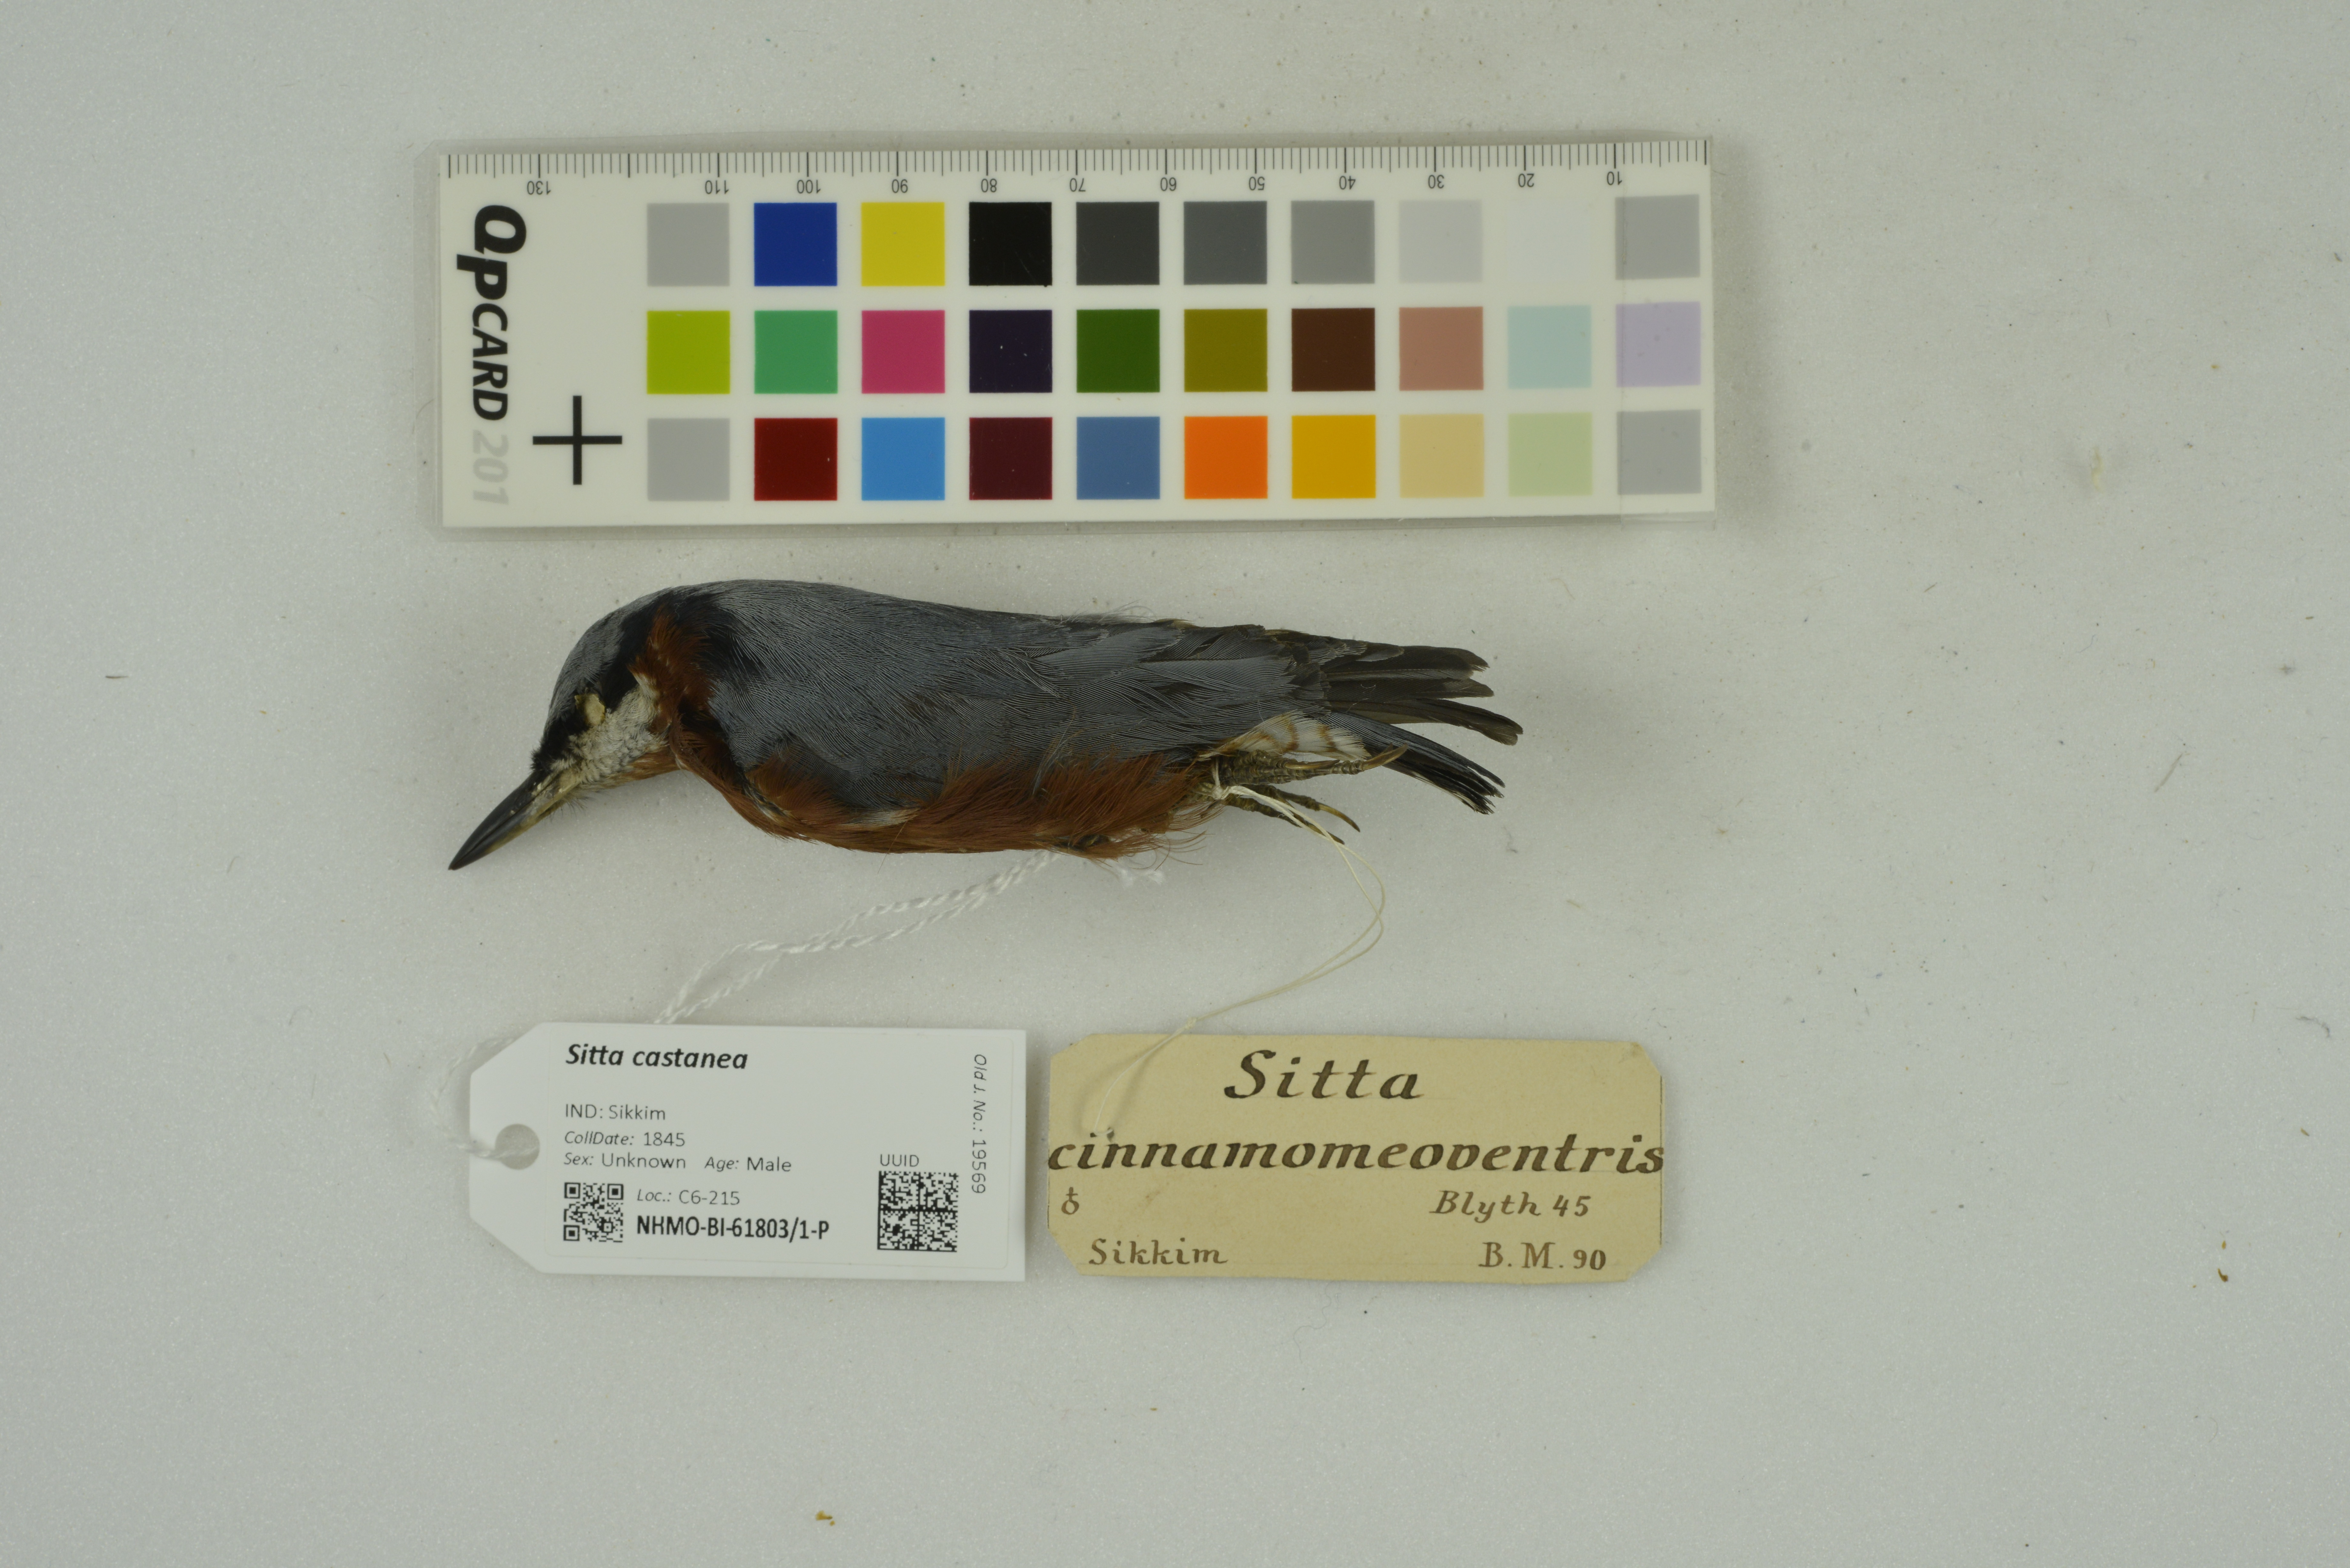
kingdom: Animalia
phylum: Chordata
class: Aves
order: Passeriformes
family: Sittidae
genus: Sitta
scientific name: Sitta castanea
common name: Indian nuthatch
